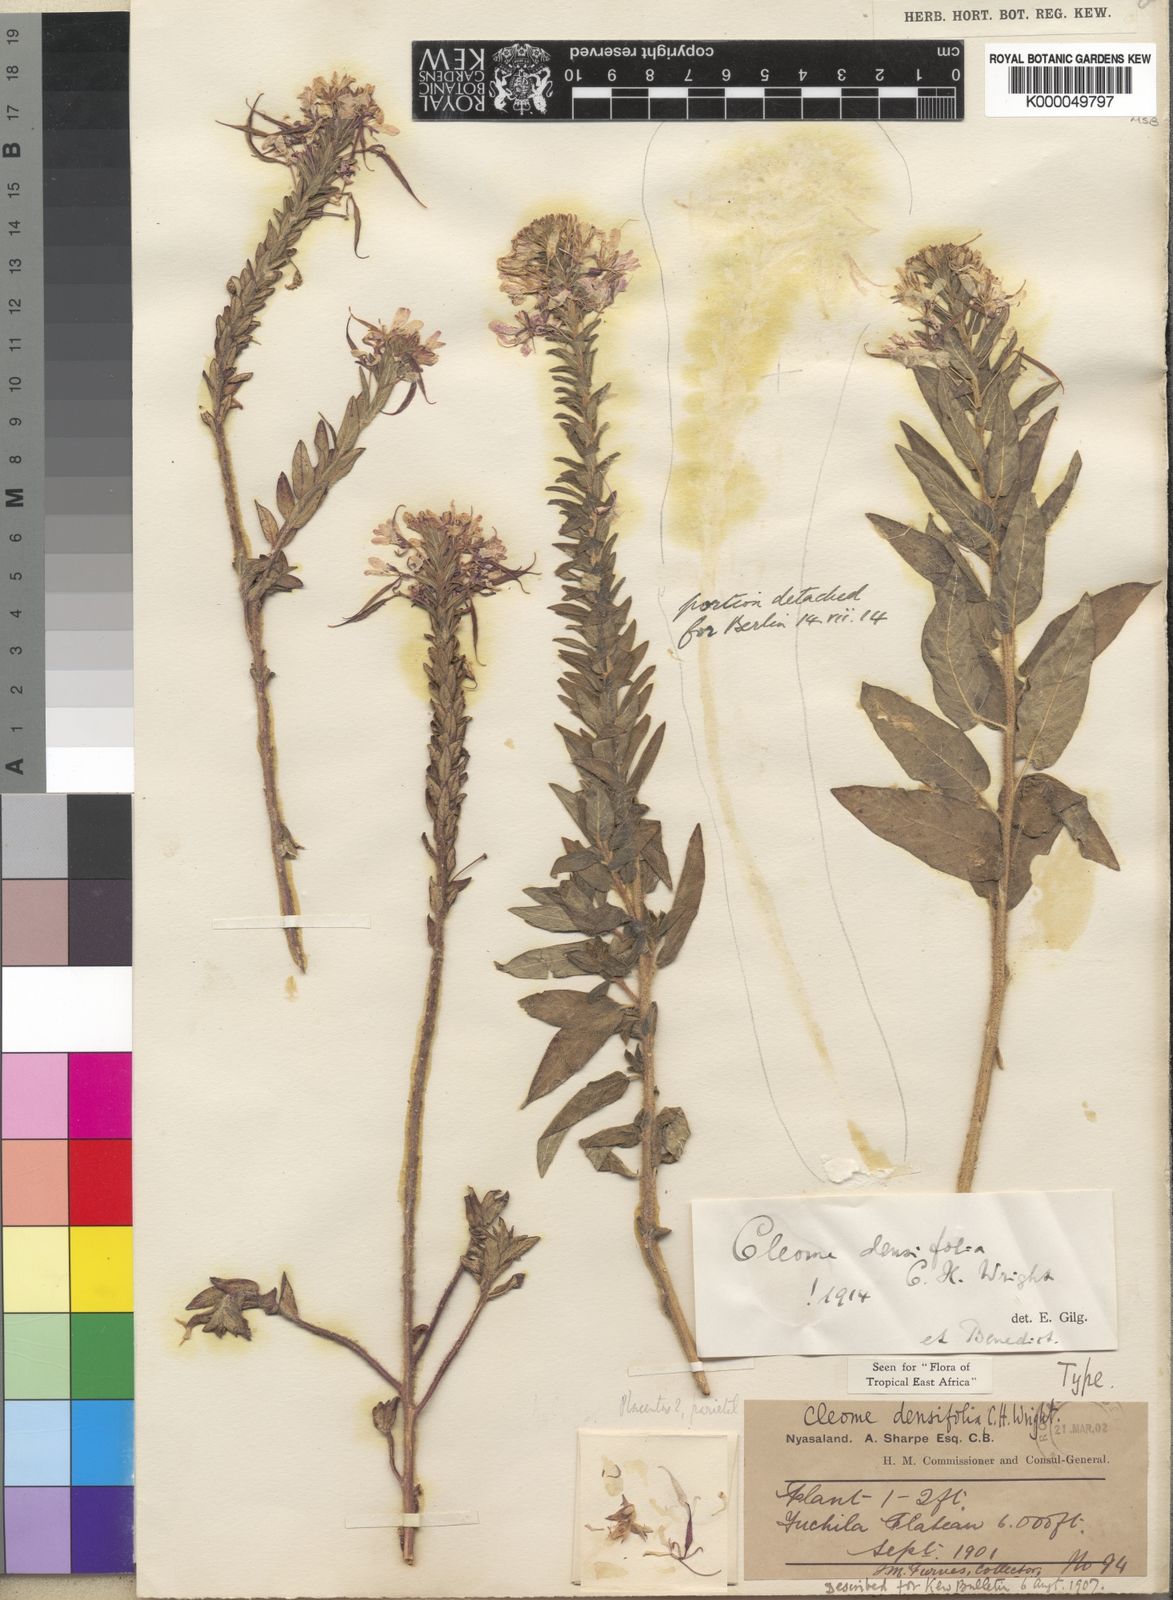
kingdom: Plantae
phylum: Tracheophyta
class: Magnoliopsida
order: Brassicales
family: Cleomaceae
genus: Sieruela
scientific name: Sieruela densifolia
